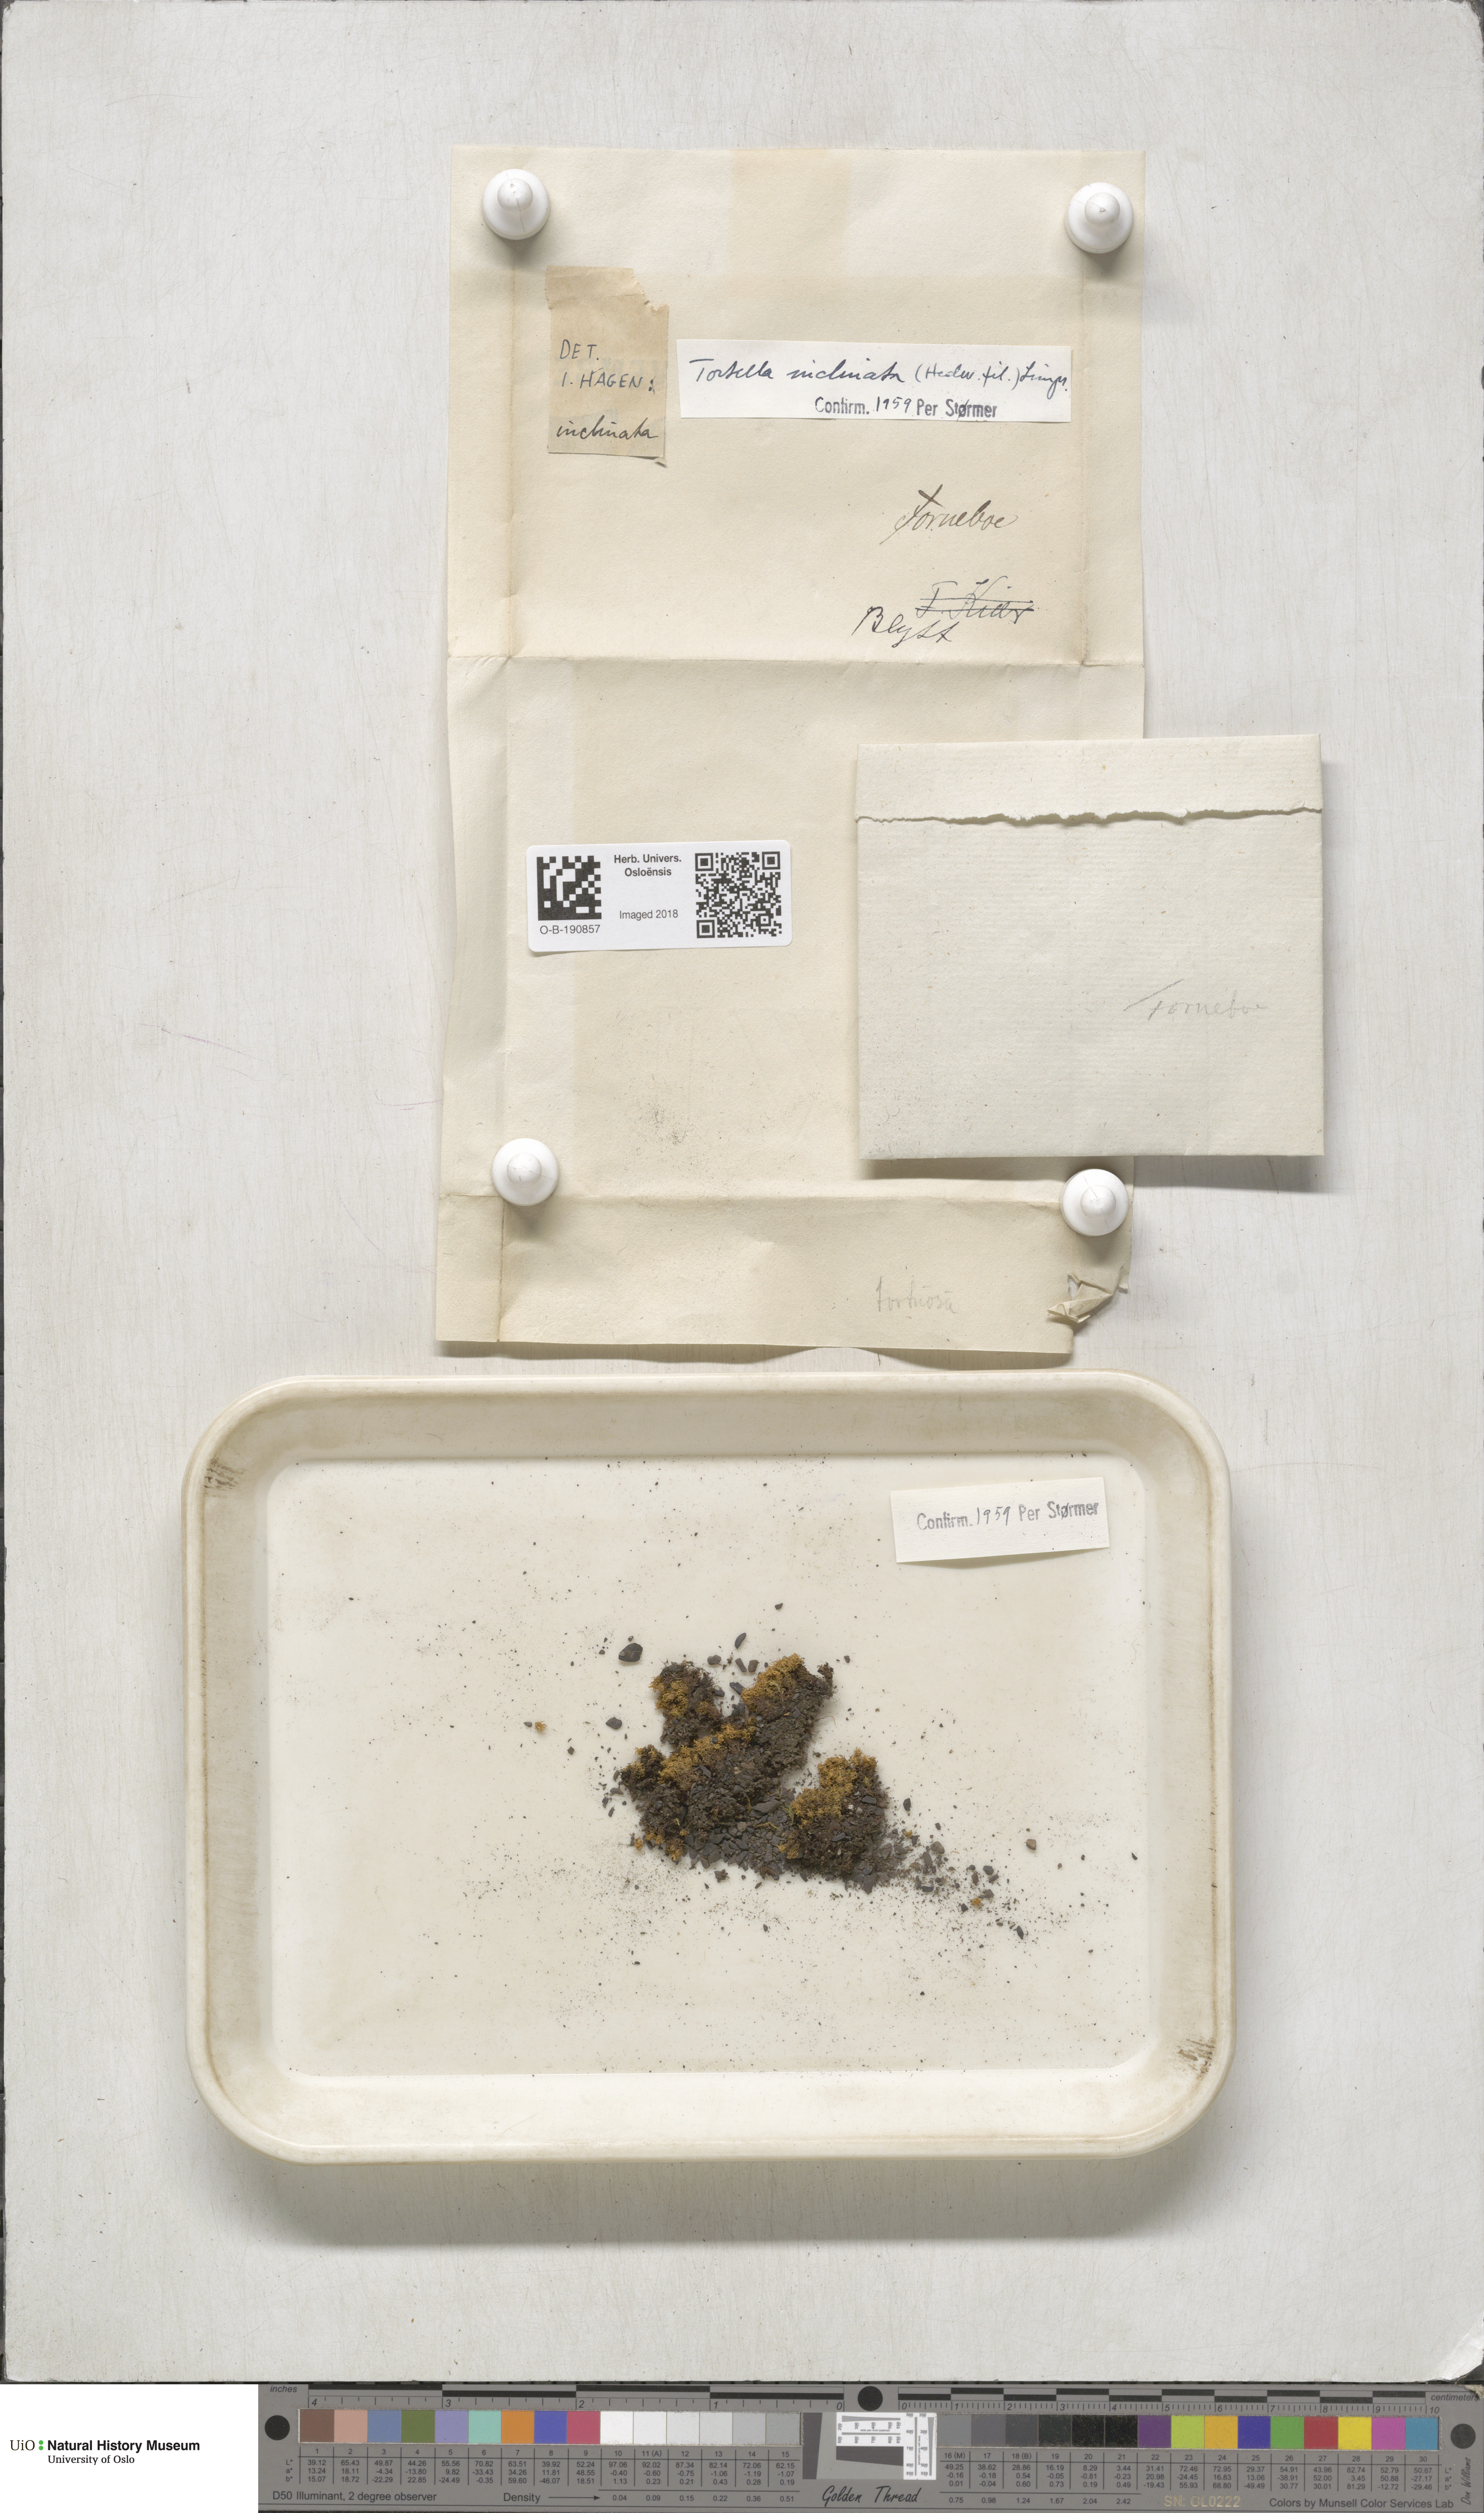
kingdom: Plantae
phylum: Bryophyta
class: Bryopsida
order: Pottiales
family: Pottiaceae
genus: Tortella
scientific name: Tortella inclinata
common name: Inclined twisted moss
